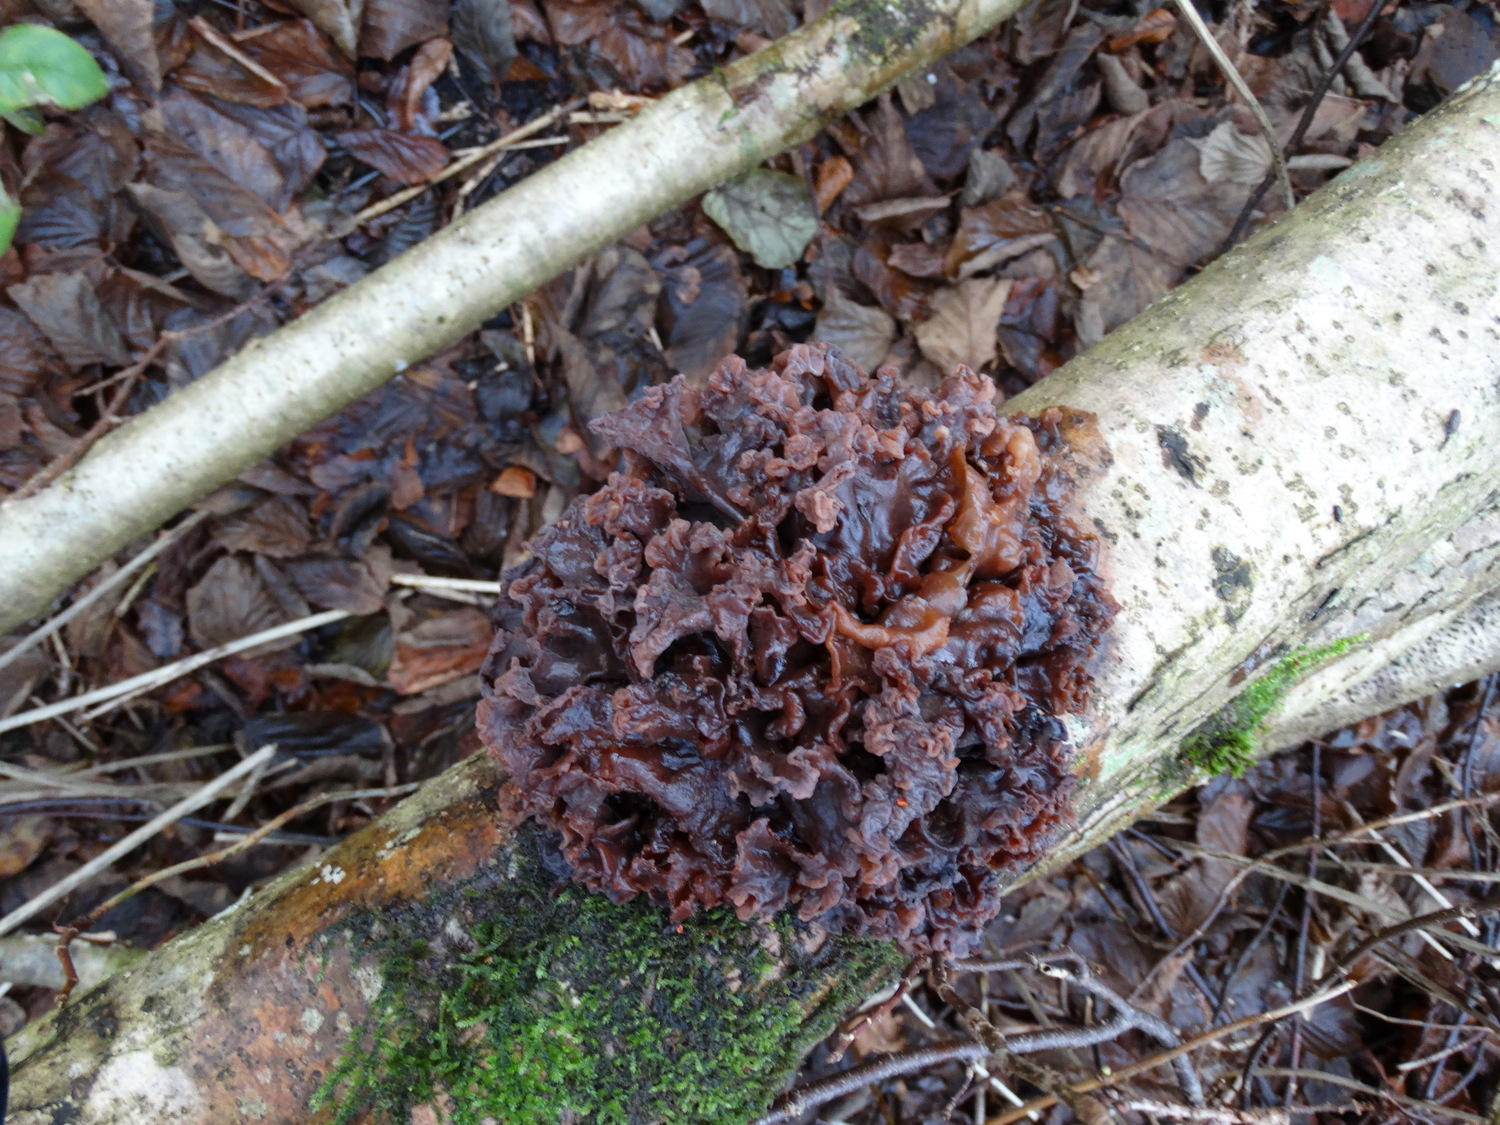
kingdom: Fungi
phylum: Basidiomycota
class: Tremellomycetes
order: Tremellales
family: Tremellaceae
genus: Phaeotremella
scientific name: Phaeotremella frondosa
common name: kæmpe-bævresvamp
